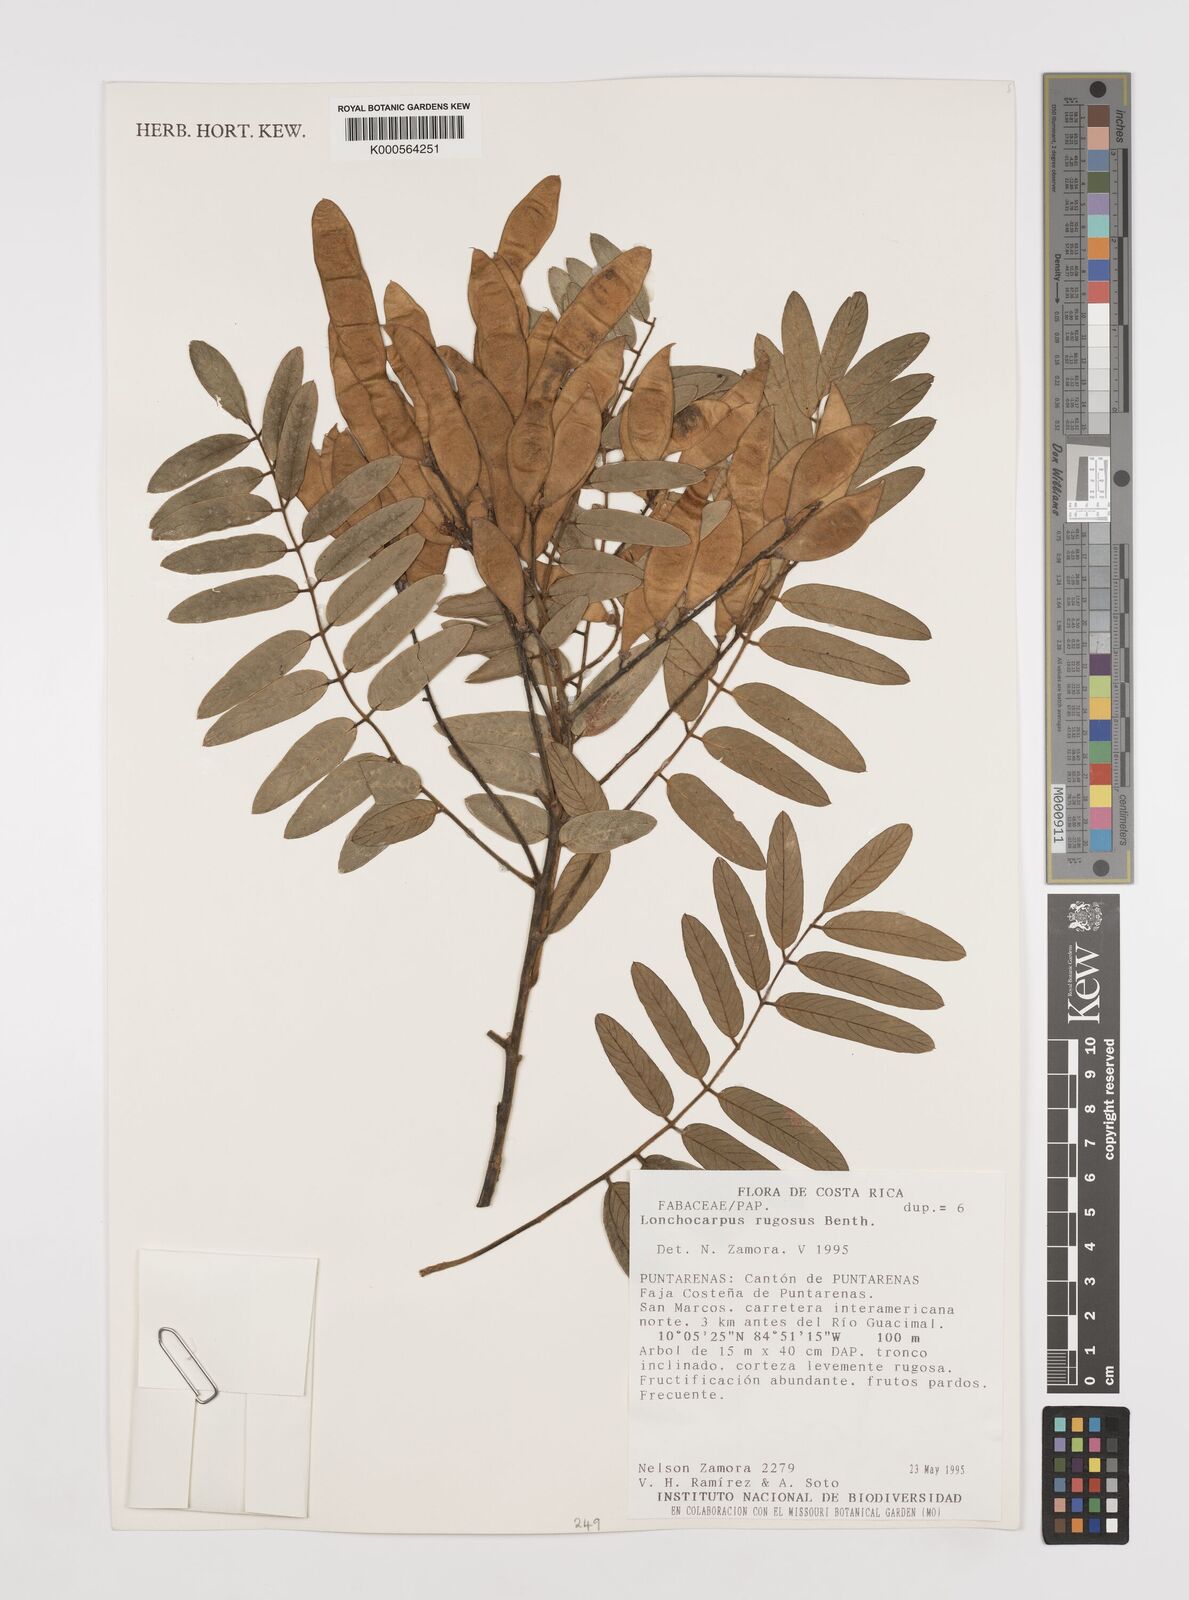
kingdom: Plantae
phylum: Tracheophyta
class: Magnoliopsida
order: Fabales
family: Fabaceae
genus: Lonchocarpus
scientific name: Lonchocarpus rugosus
